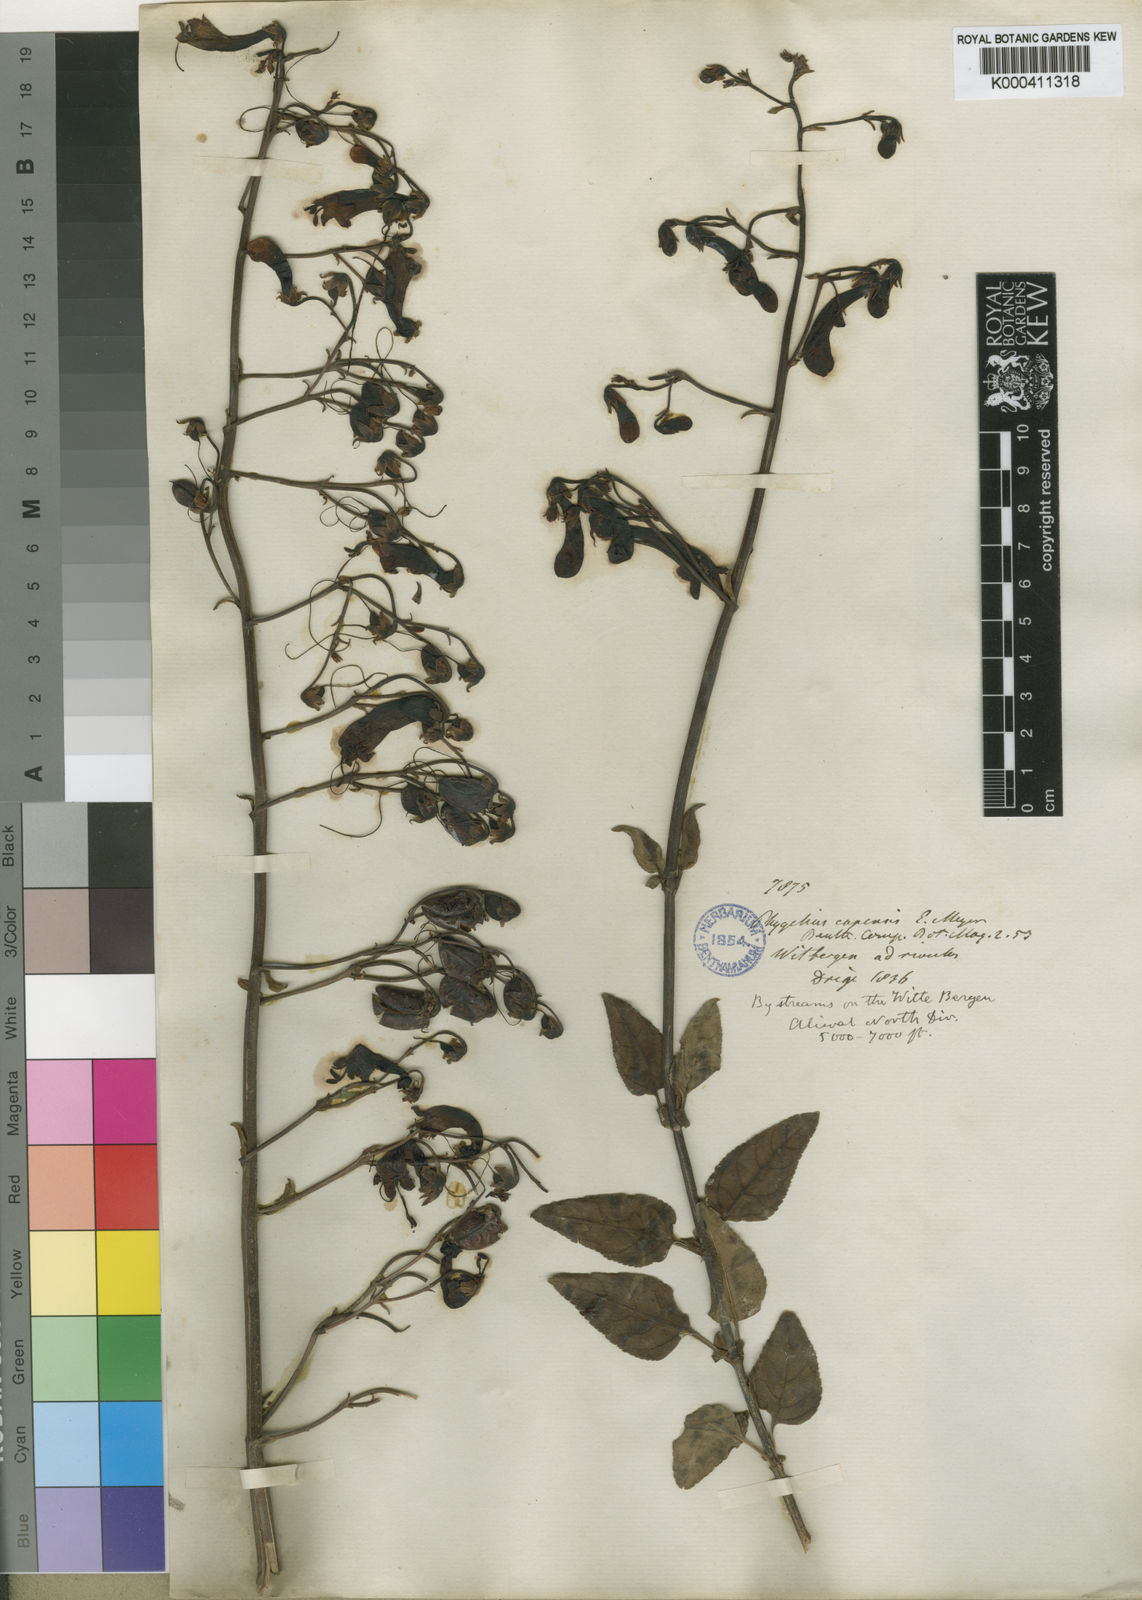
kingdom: Plantae
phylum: Tracheophyta
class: Magnoliopsida
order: Lamiales
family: Scrophulariaceae
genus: Phygelius
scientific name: Phygelius capensis
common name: Cape figwort
